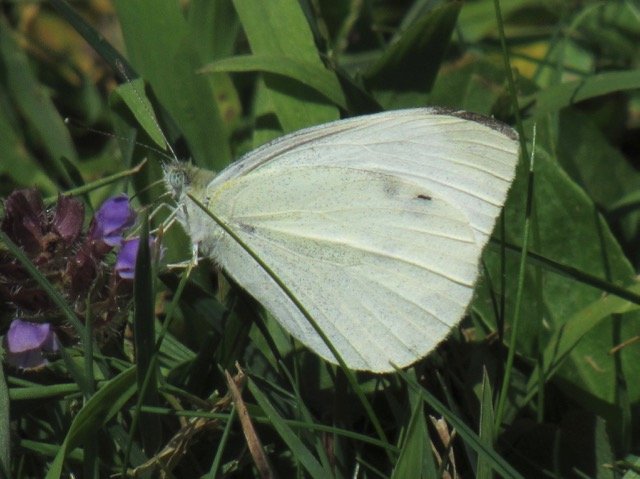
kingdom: Animalia
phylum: Arthropoda
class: Insecta
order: Lepidoptera
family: Pieridae
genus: Pieris
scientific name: Pieris rapae
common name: Cabbage White
